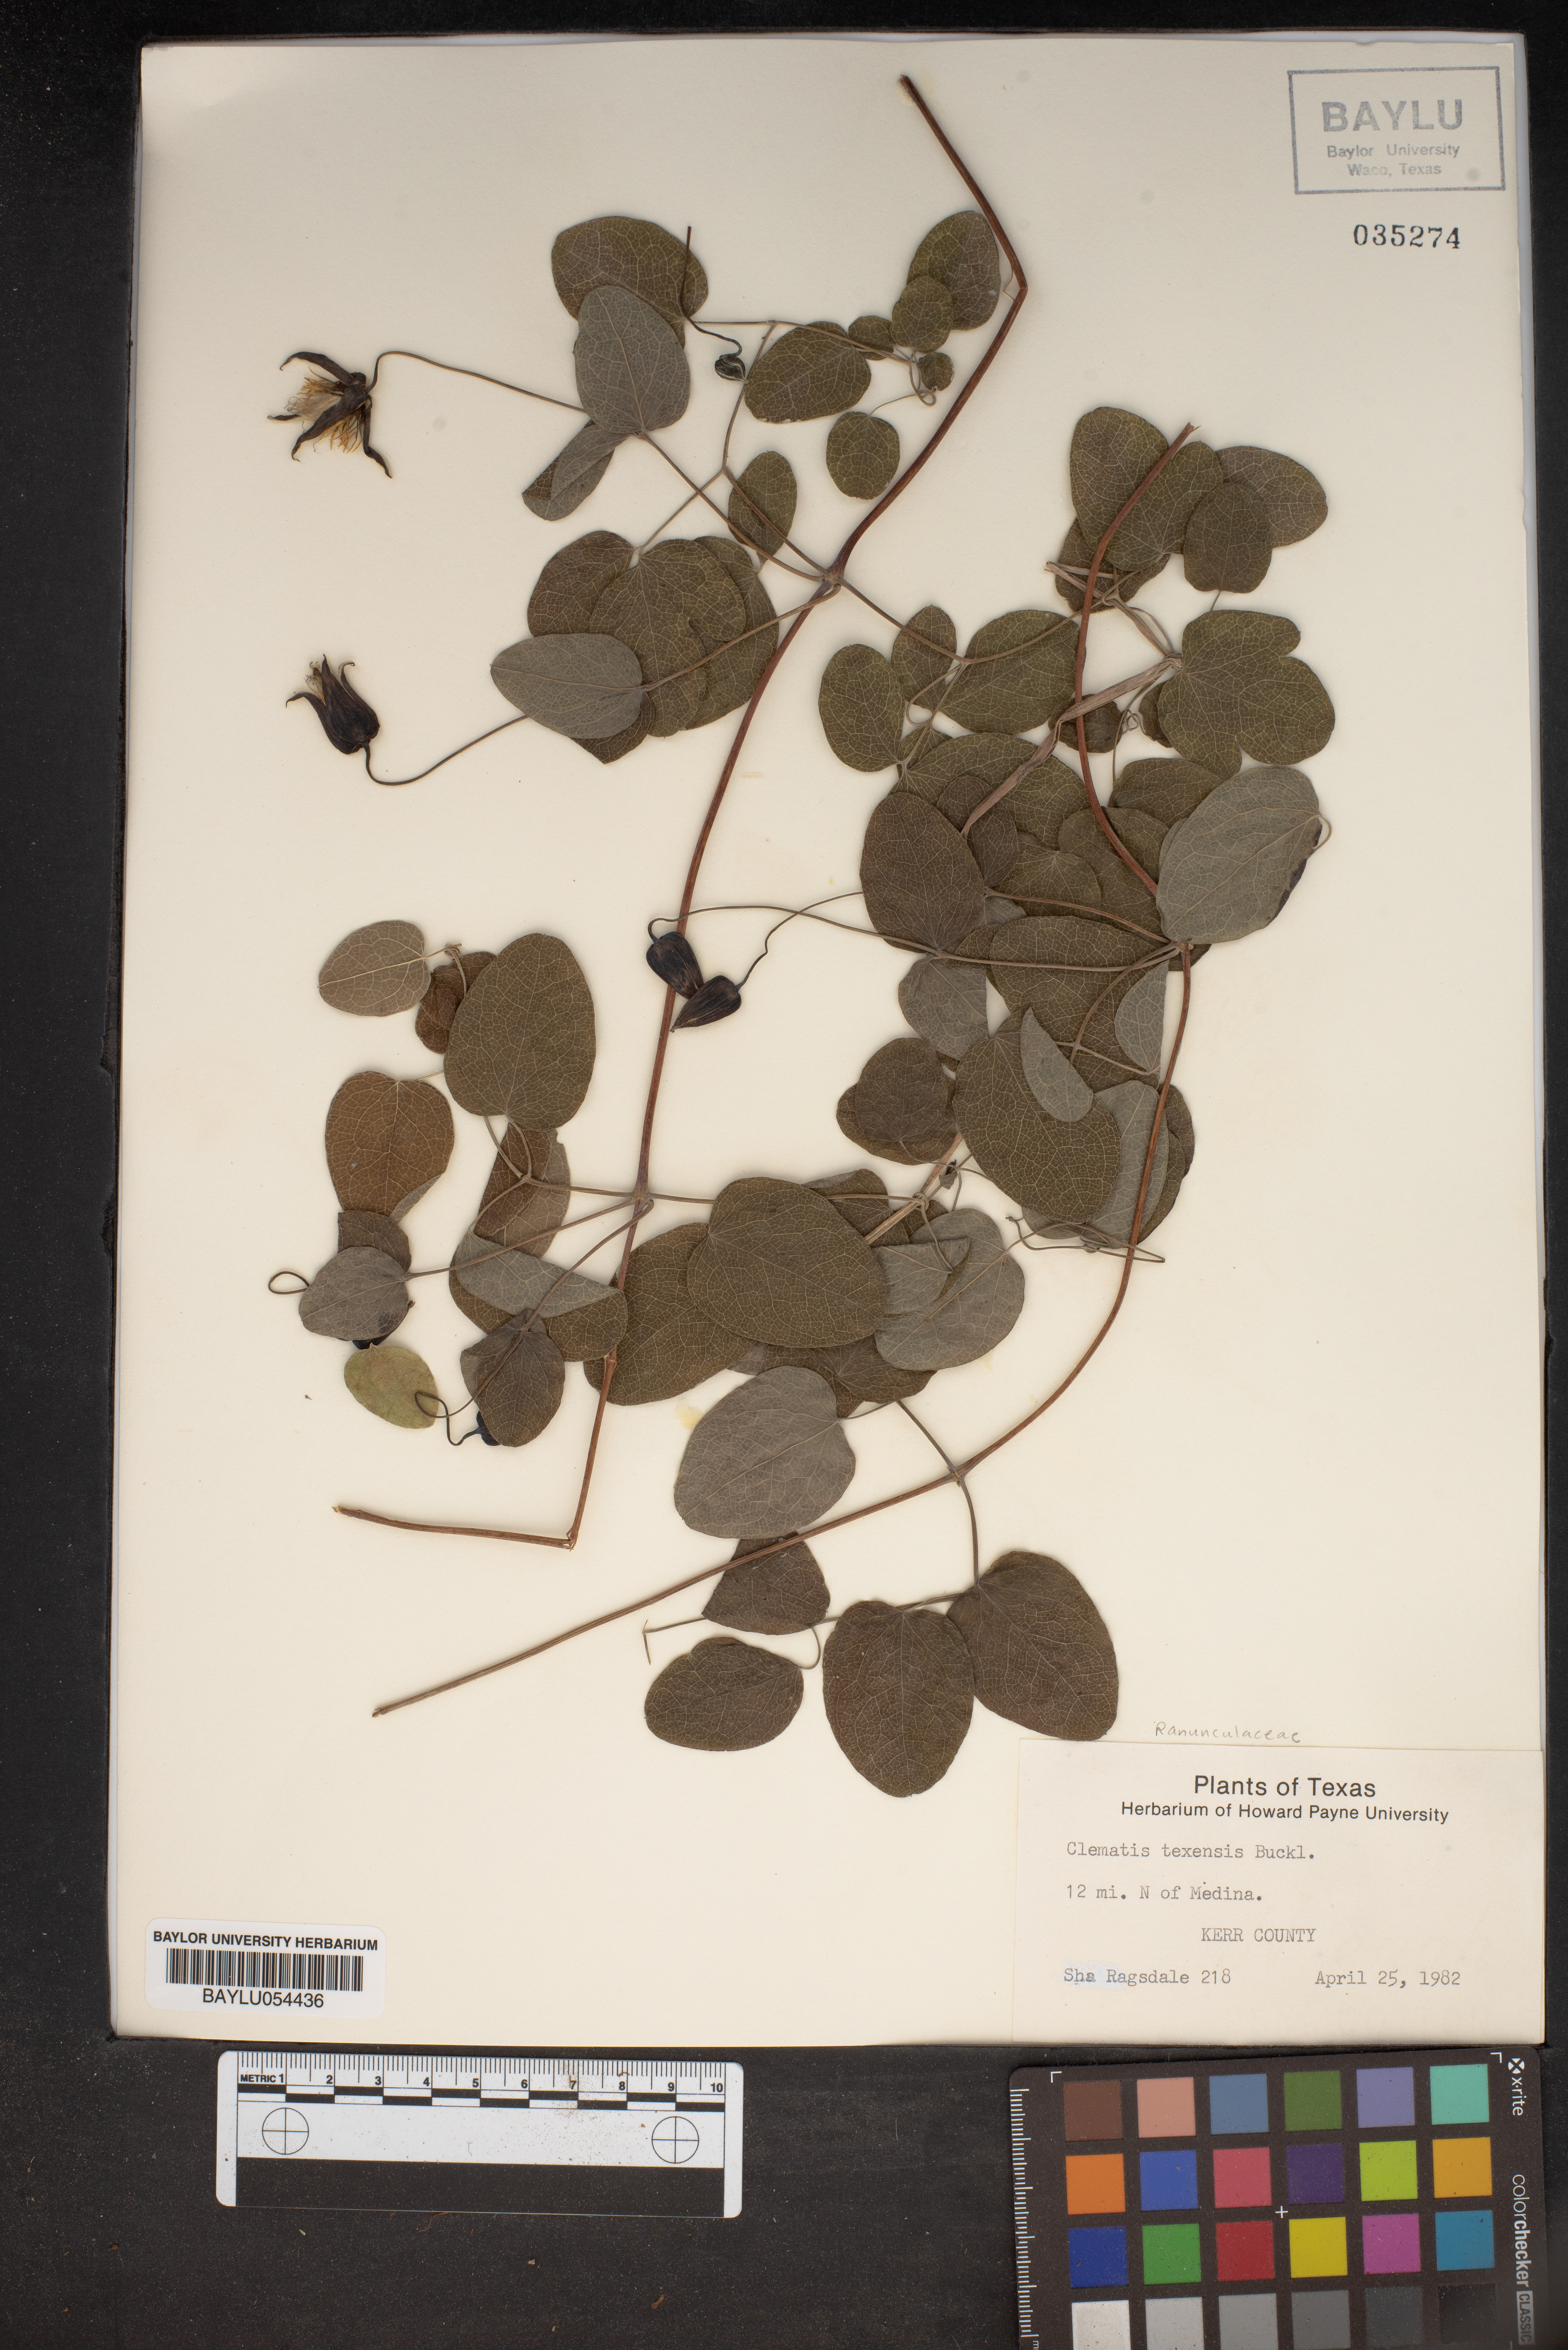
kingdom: Plantae
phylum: Tracheophyta
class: Magnoliopsida
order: Ranunculales
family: Ranunculaceae
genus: Clematis
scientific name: Clematis texensis
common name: Crimson clematis
